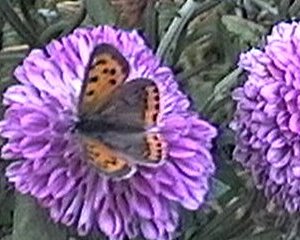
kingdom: Animalia
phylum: Arthropoda
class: Insecta
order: Lepidoptera
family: Lycaenidae
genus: Lycaena
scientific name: Lycaena phlaeas
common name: American Copper
